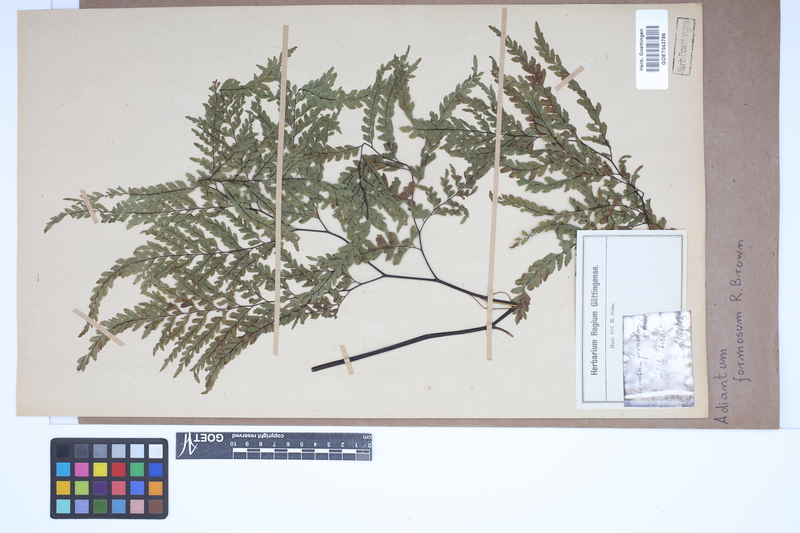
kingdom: Plantae
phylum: Tracheophyta
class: Polypodiopsida
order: Polypodiales
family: Pteridaceae
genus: Adiantum
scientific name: Adiantum formosum
